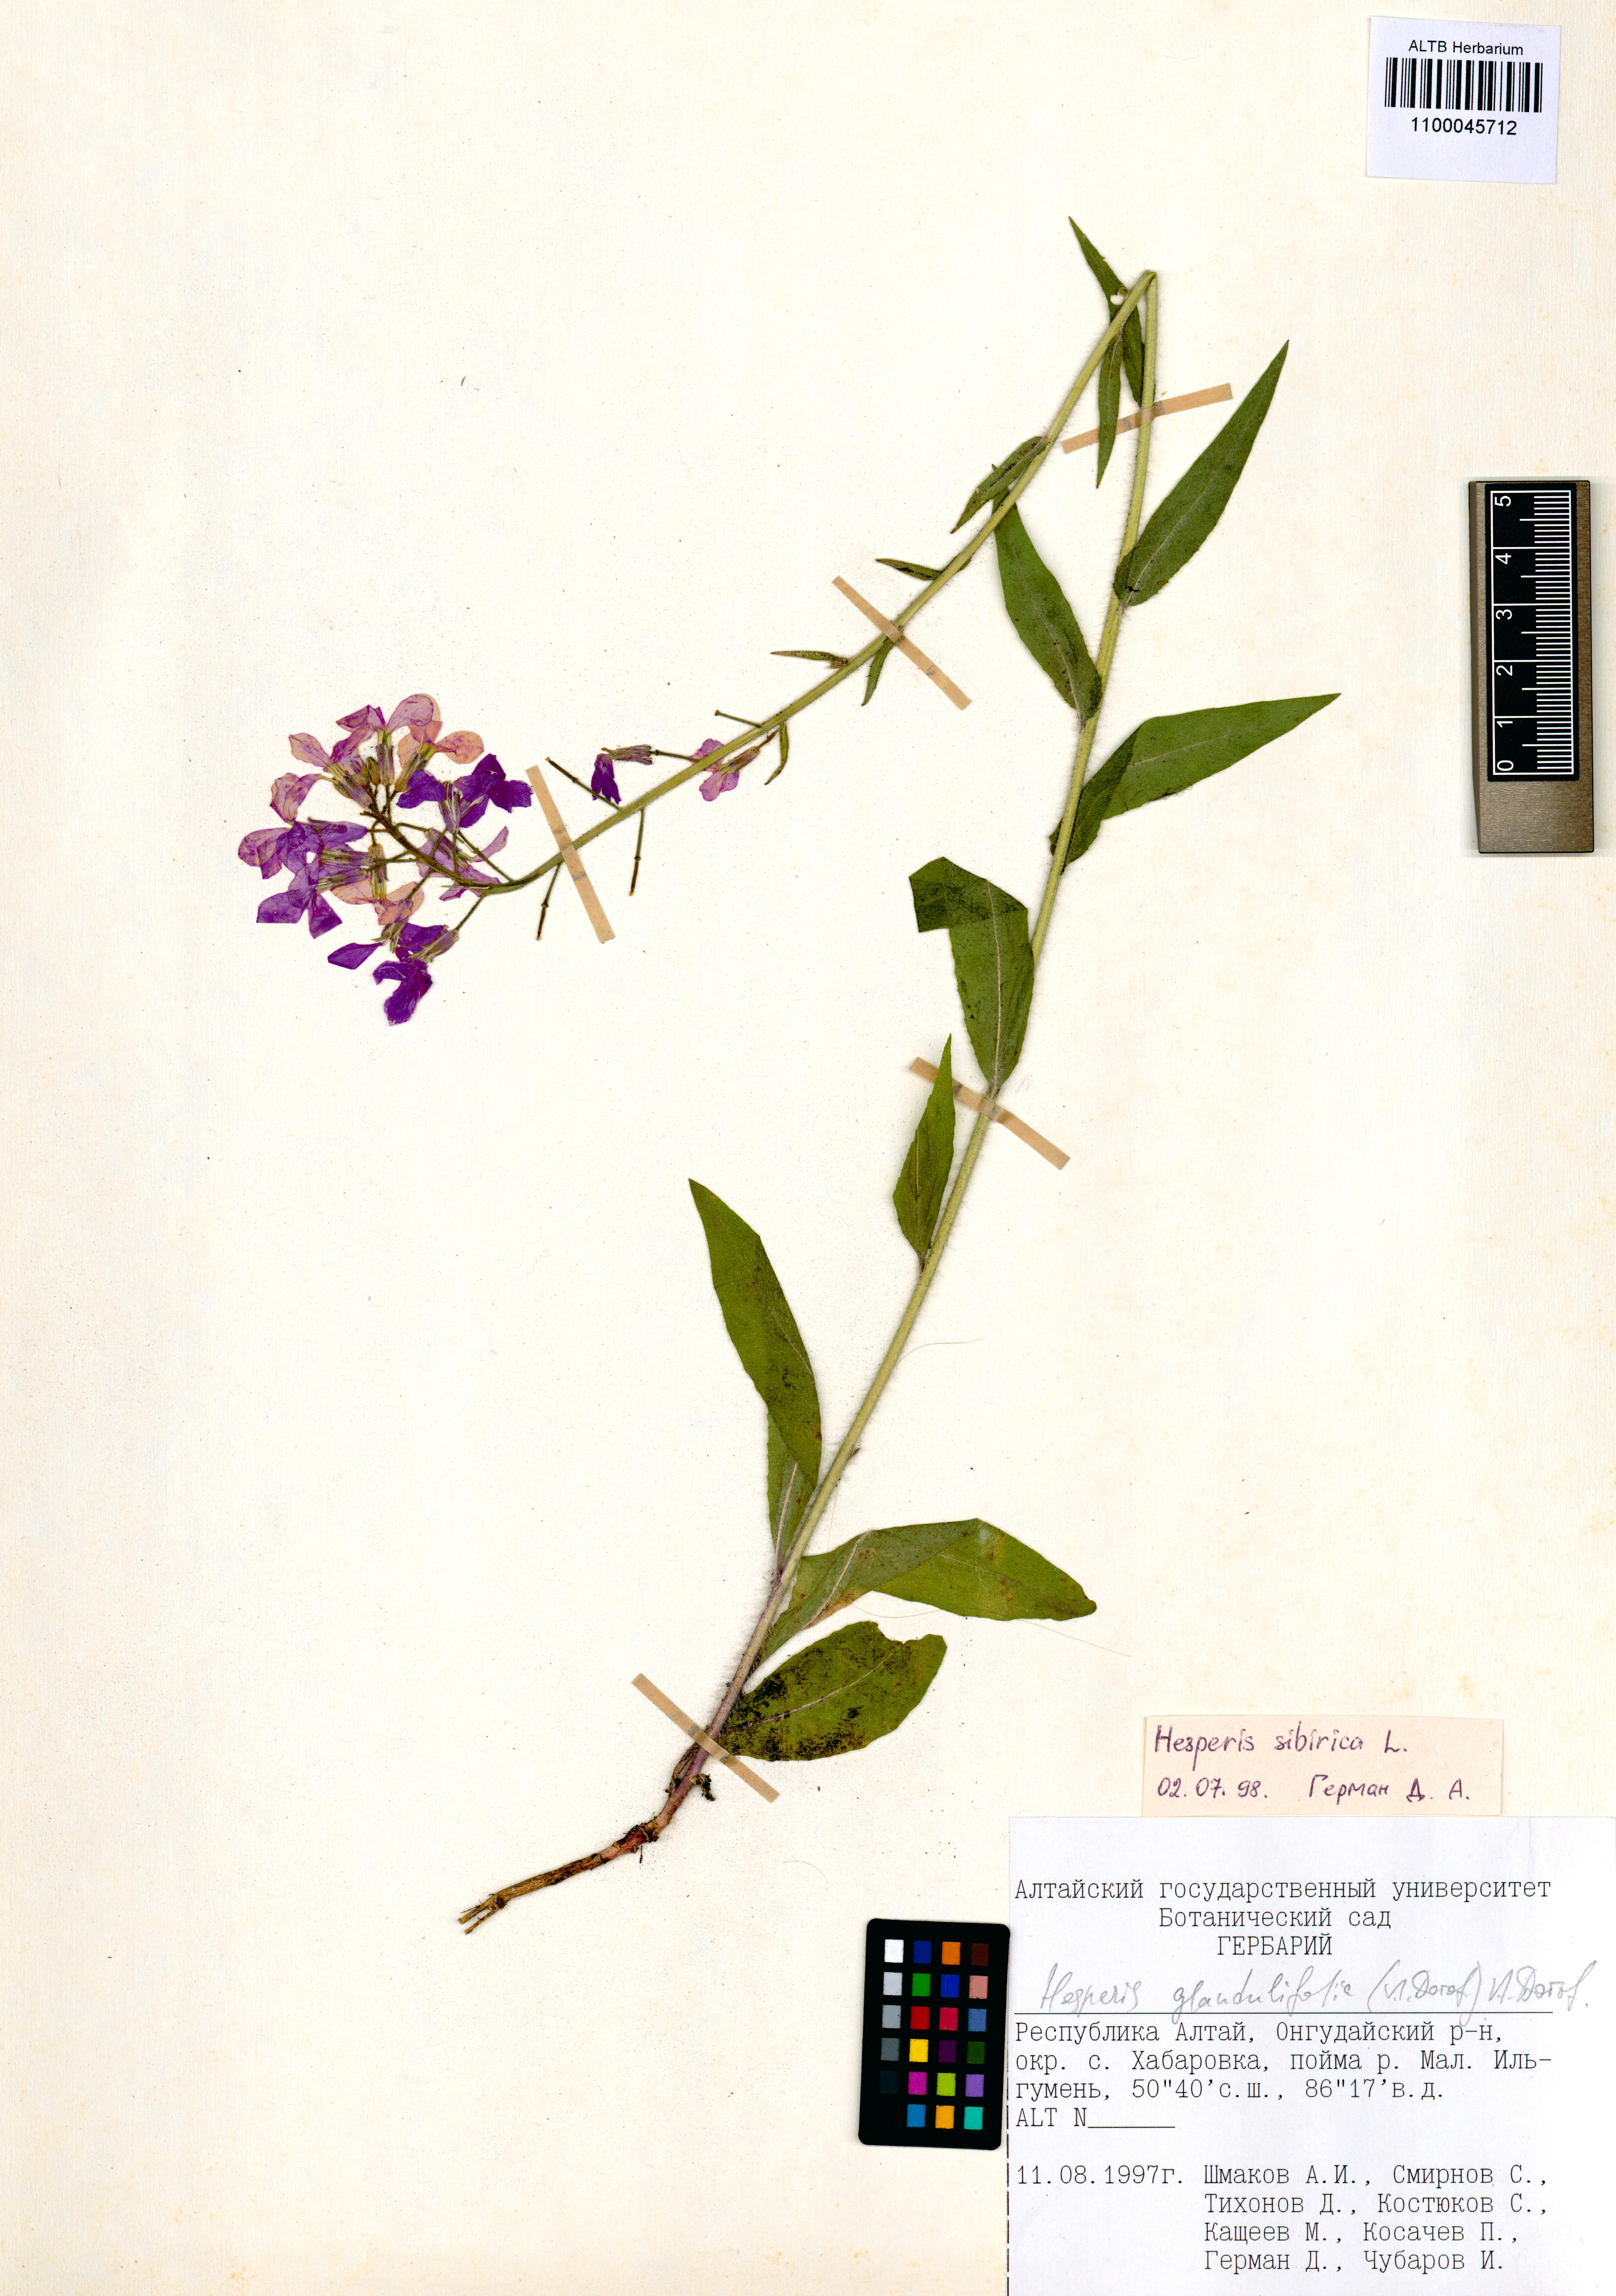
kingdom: Plantae
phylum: Tracheophyta
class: Magnoliopsida
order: Brassicales
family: Brassicaceae
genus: Hesperis
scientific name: Hesperis sibirica
